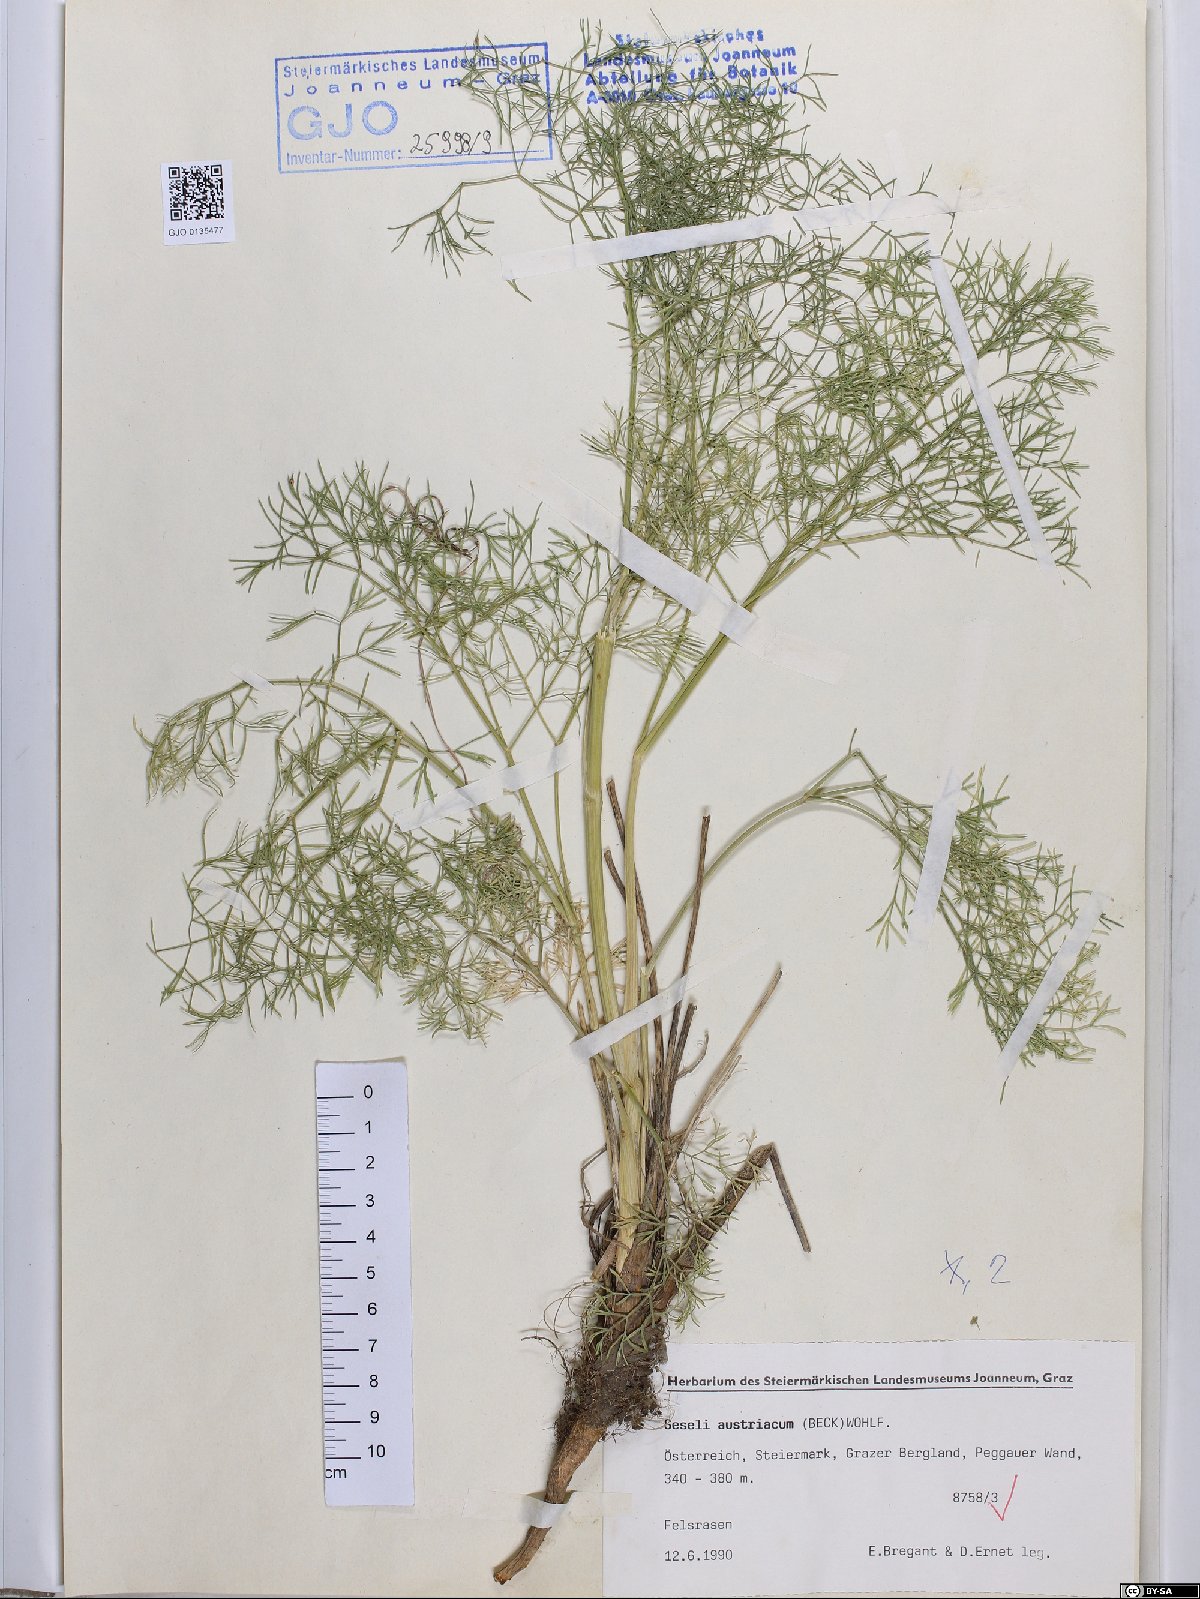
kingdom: Plantae
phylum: Tracheophyta
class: Magnoliopsida
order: Apiales
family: Apiaceae
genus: Seseli
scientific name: Seseli austriacum
